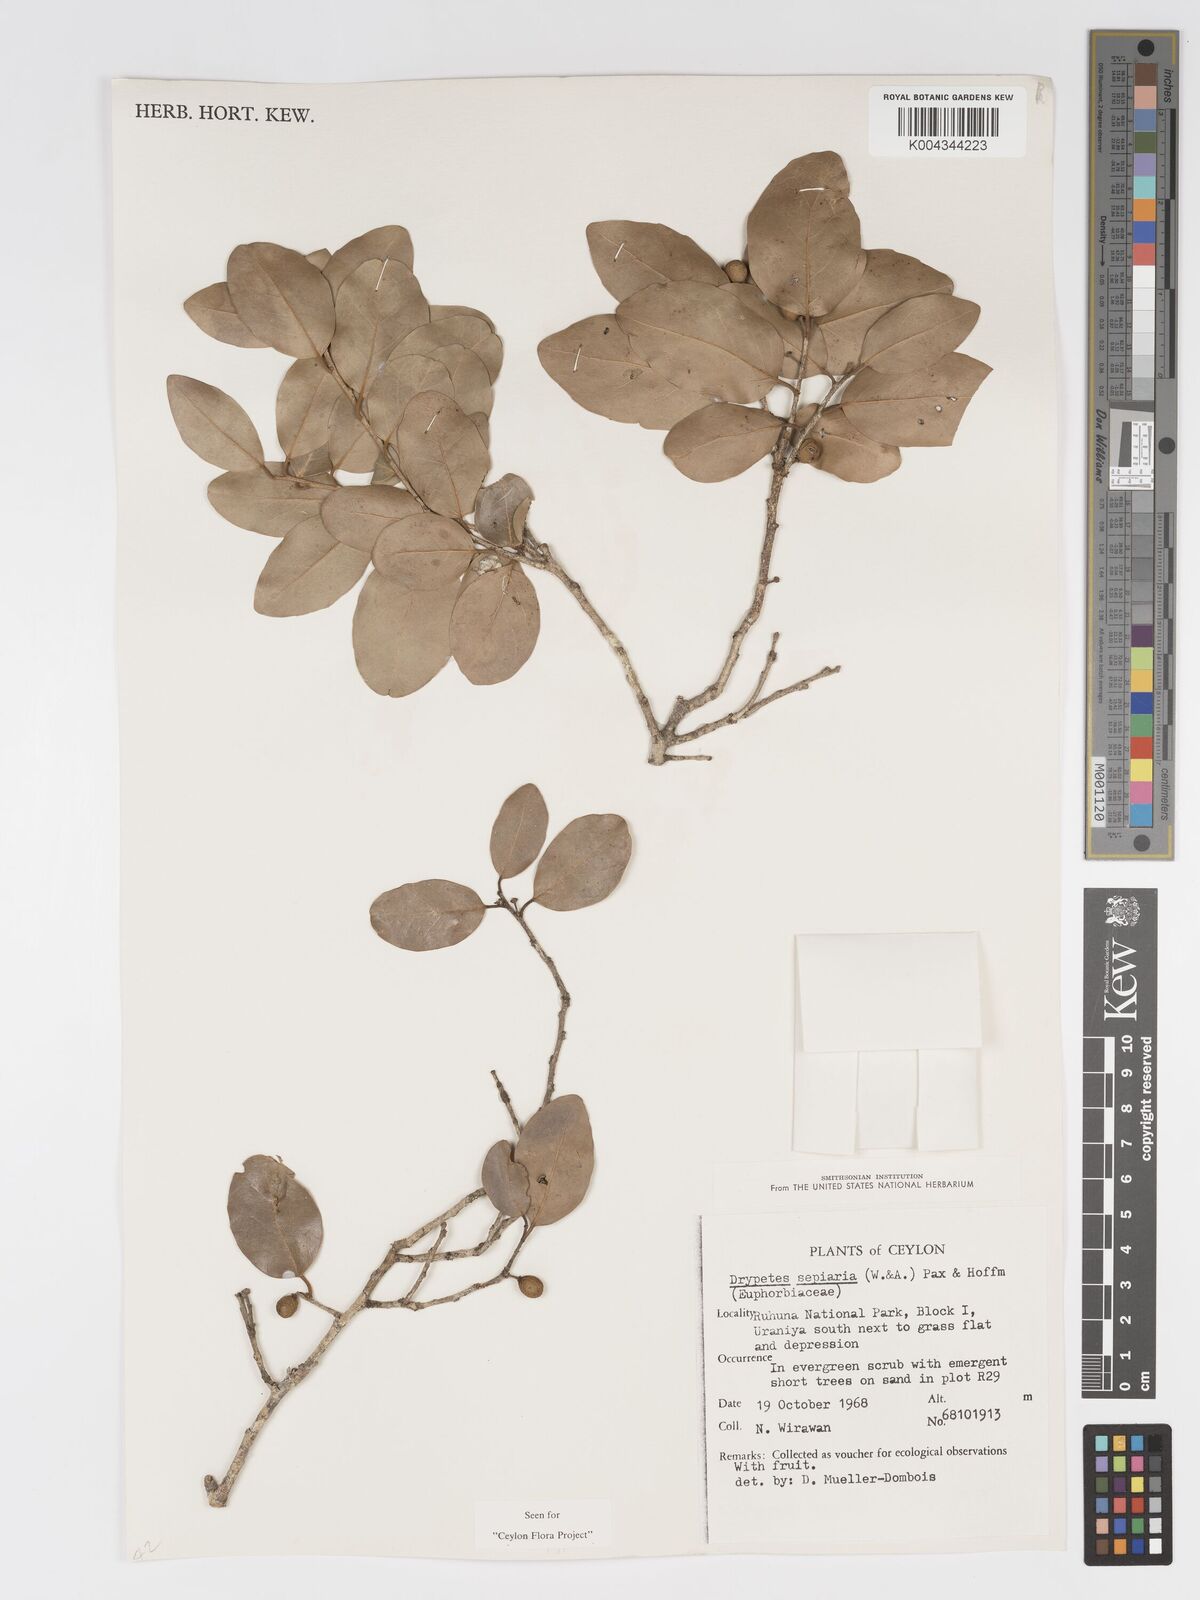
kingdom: Plantae
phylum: Tracheophyta
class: Magnoliopsida
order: Malpighiales
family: Putranjivaceae
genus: Drypetes
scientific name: Drypetes sepiaria
